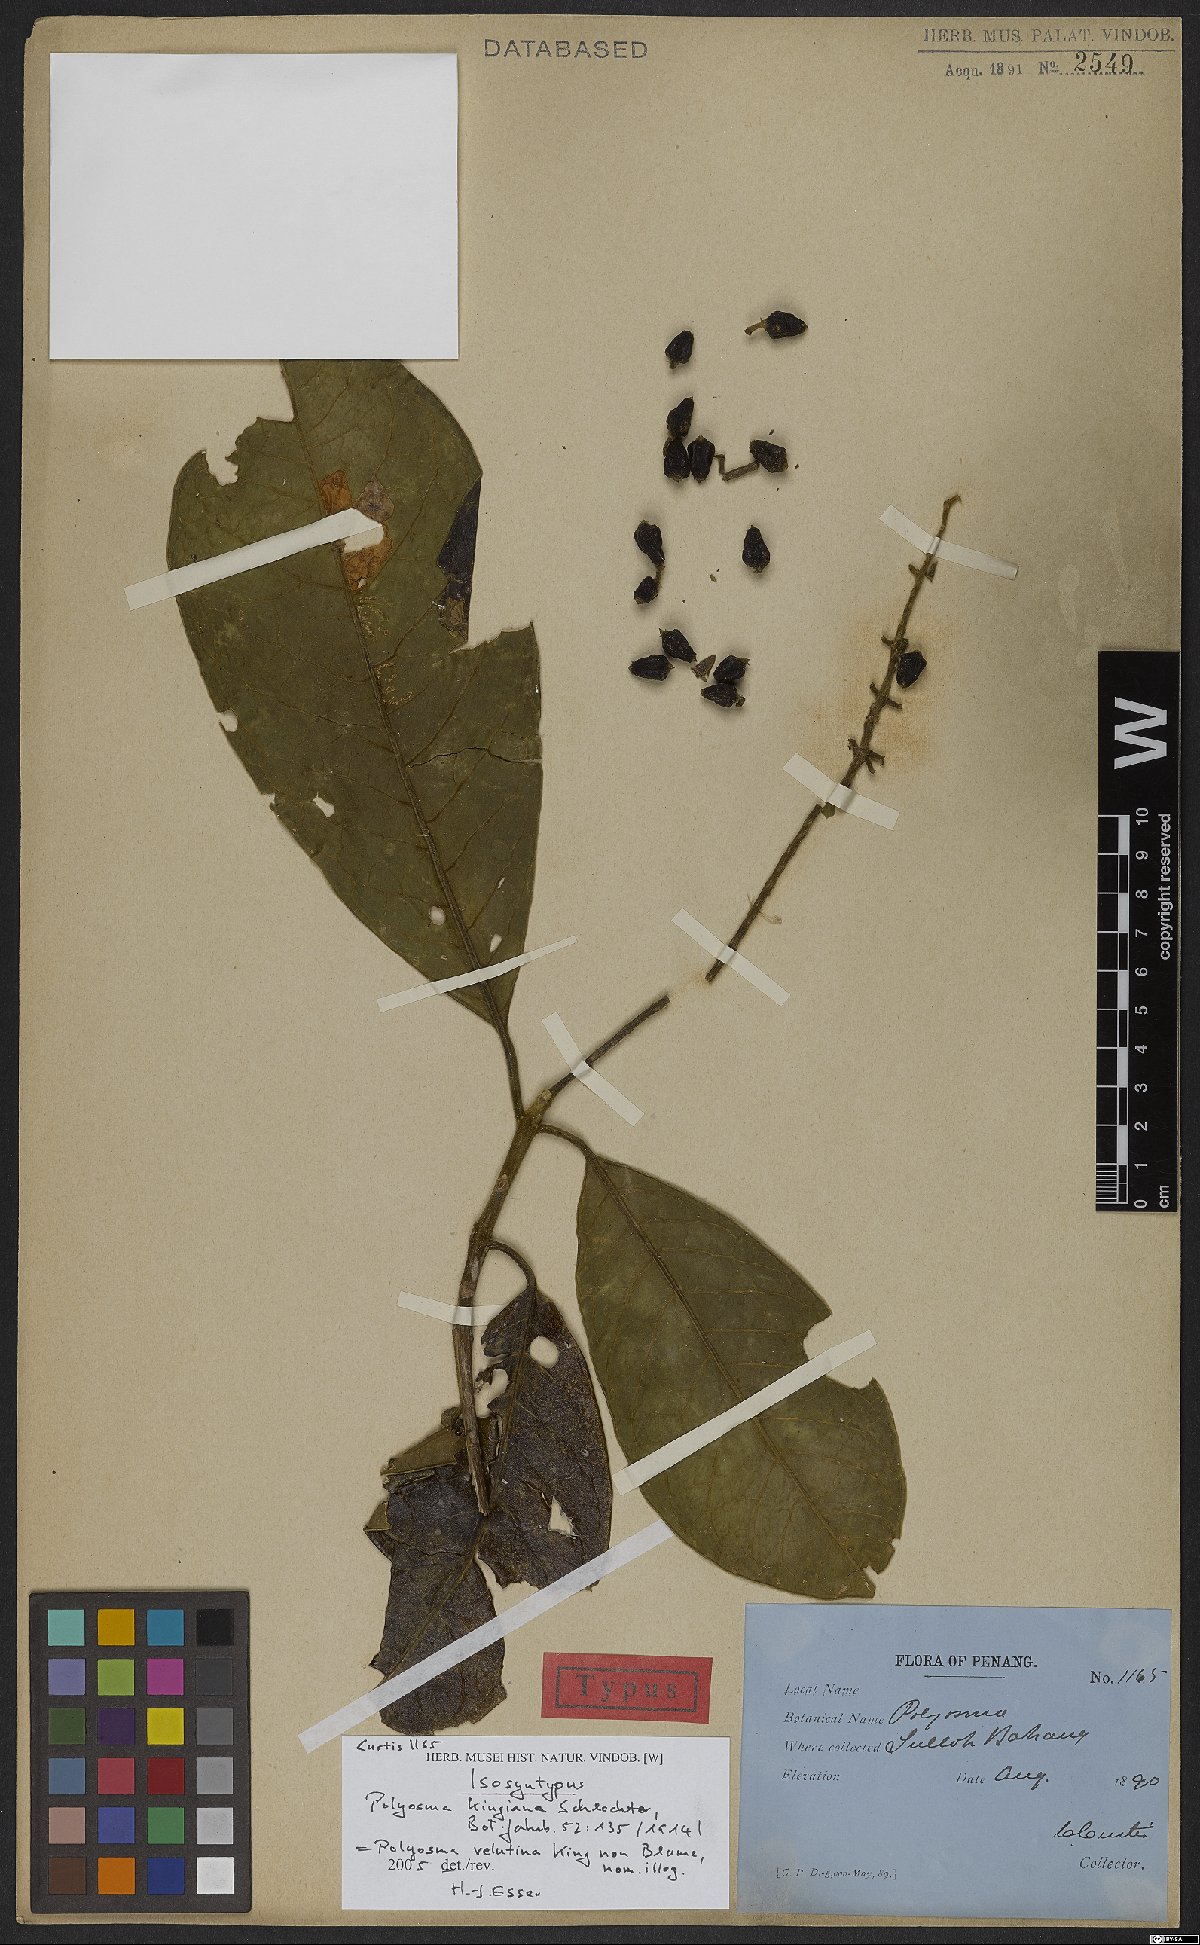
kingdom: Plantae
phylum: Tracheophyta
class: Magnoliopsida
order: Escalloniales
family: Escalloniaceae
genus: Polyosma
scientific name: Polyosma kingiana
